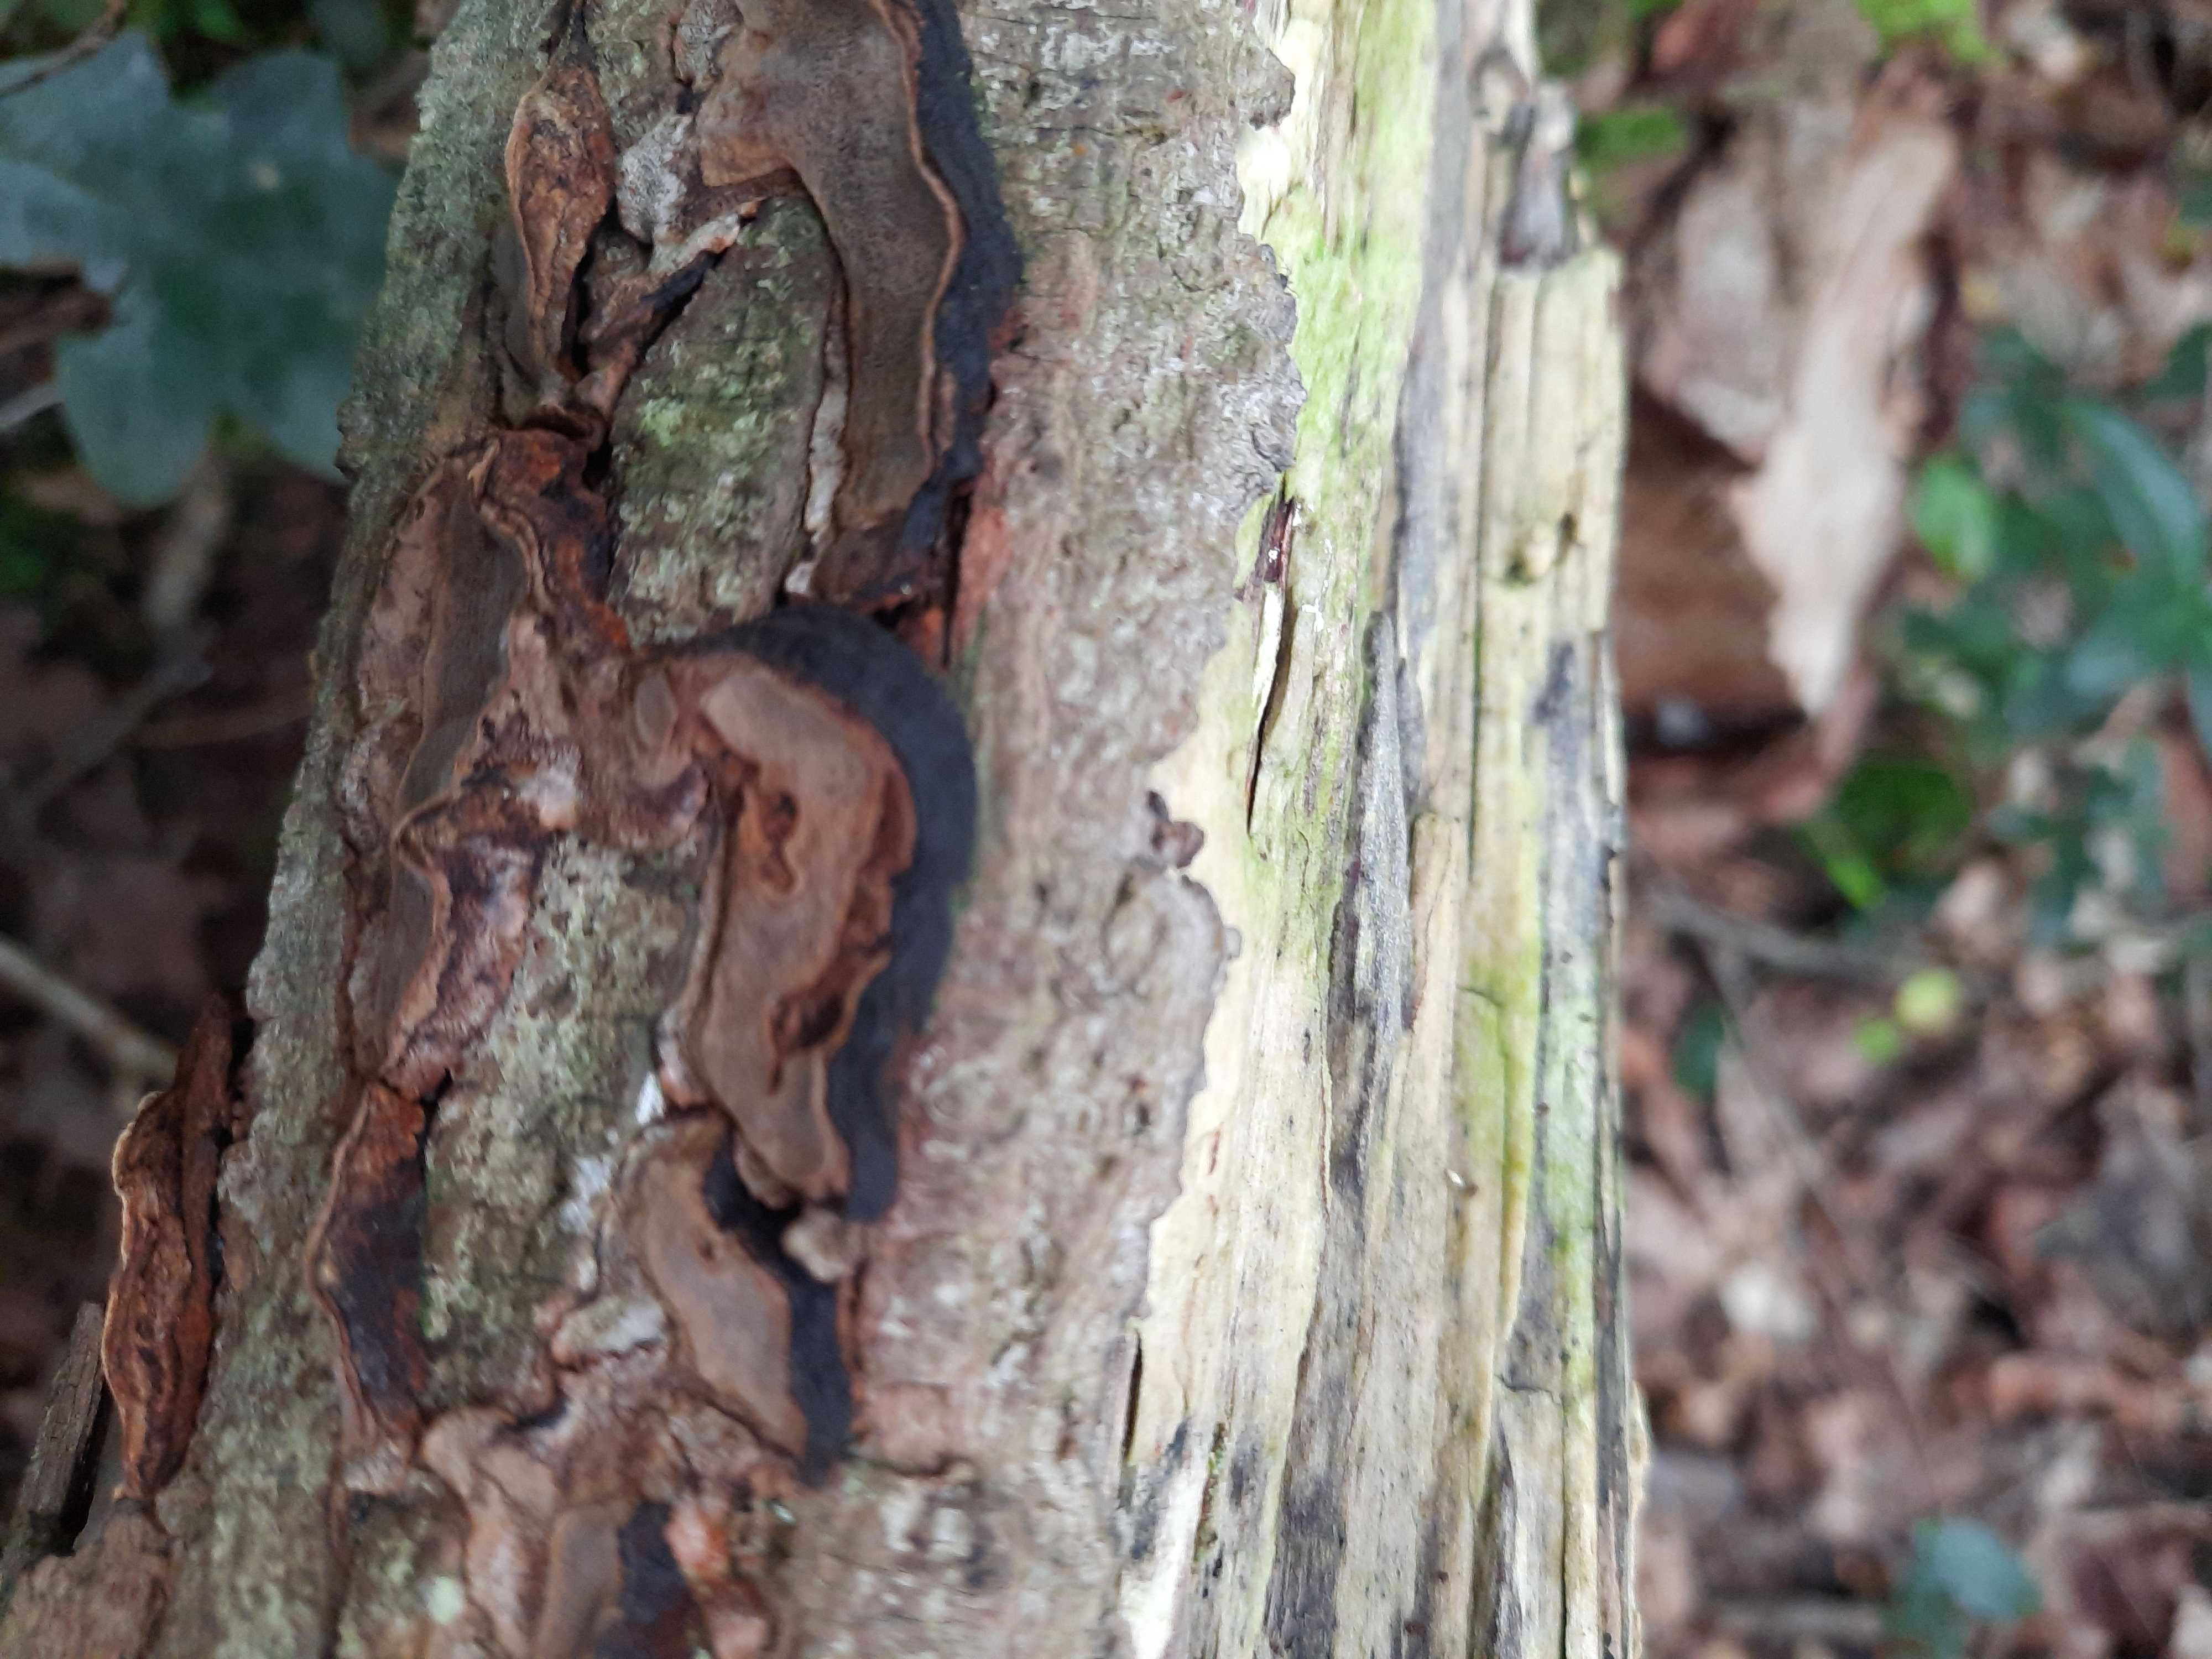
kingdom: Fungi
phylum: Basidiomycota
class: Agaricomycetes
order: Hymenochaetales
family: Hymenochaetaceae
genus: Phellinopsis
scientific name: Phellinopsis conchata
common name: pile-ildporesvamp
